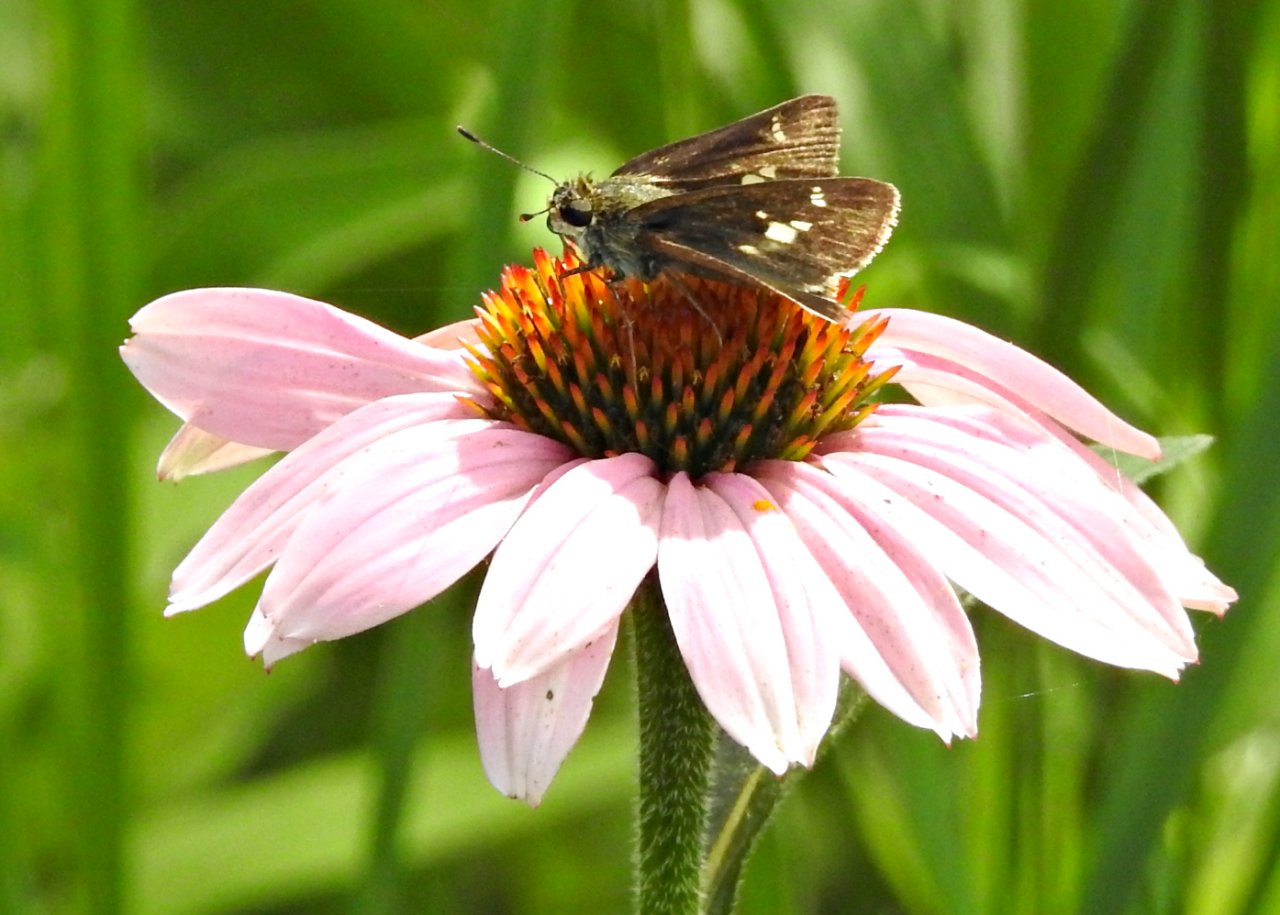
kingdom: Animalia
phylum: Arthropoda
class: Insecta
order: Lepidoptera
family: Hesperiidae
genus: Vernia
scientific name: Vernia verna
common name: Little Glassywing
